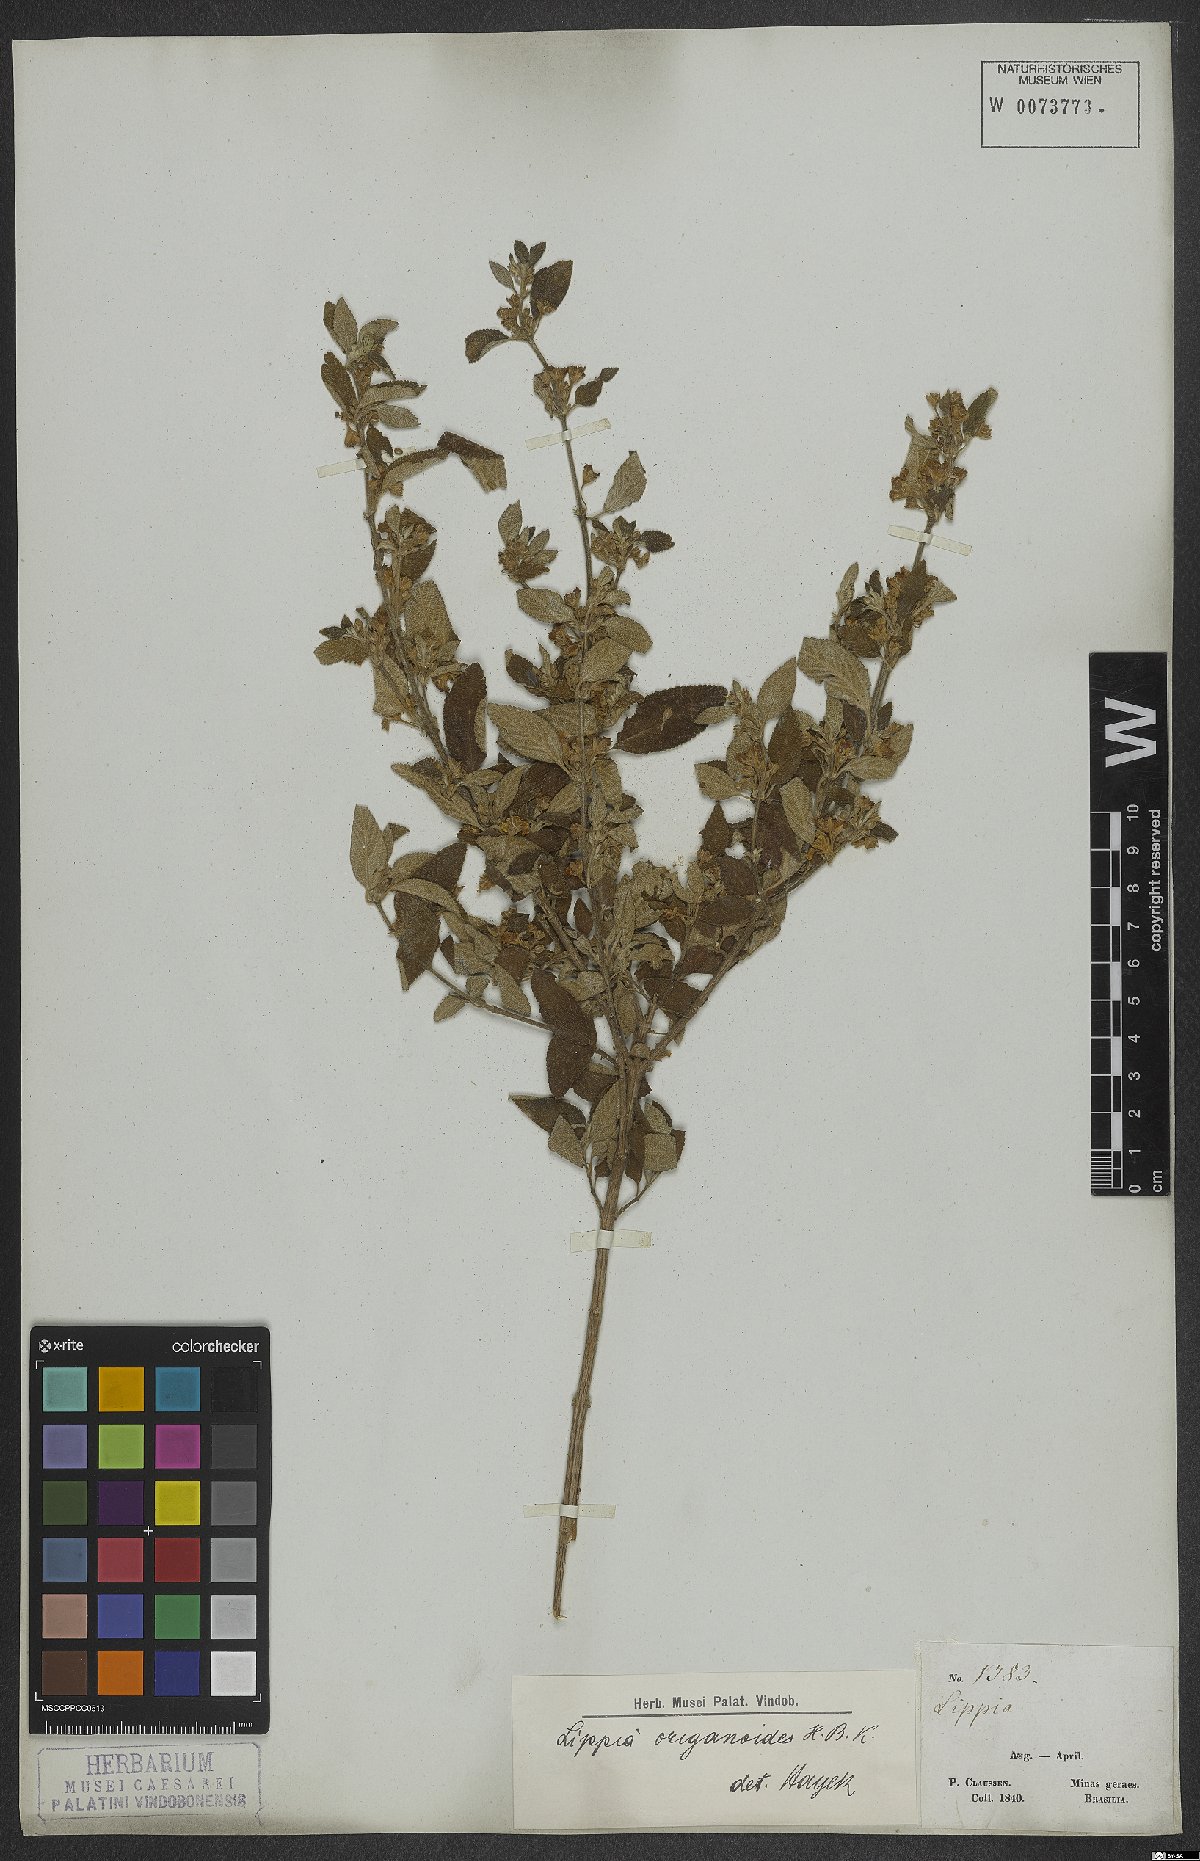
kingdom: Plantae
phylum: Tracheophyta
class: Magnoliopsida
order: Lamiales
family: Verbenaceae
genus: Lippia
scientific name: Lippia origanoides
